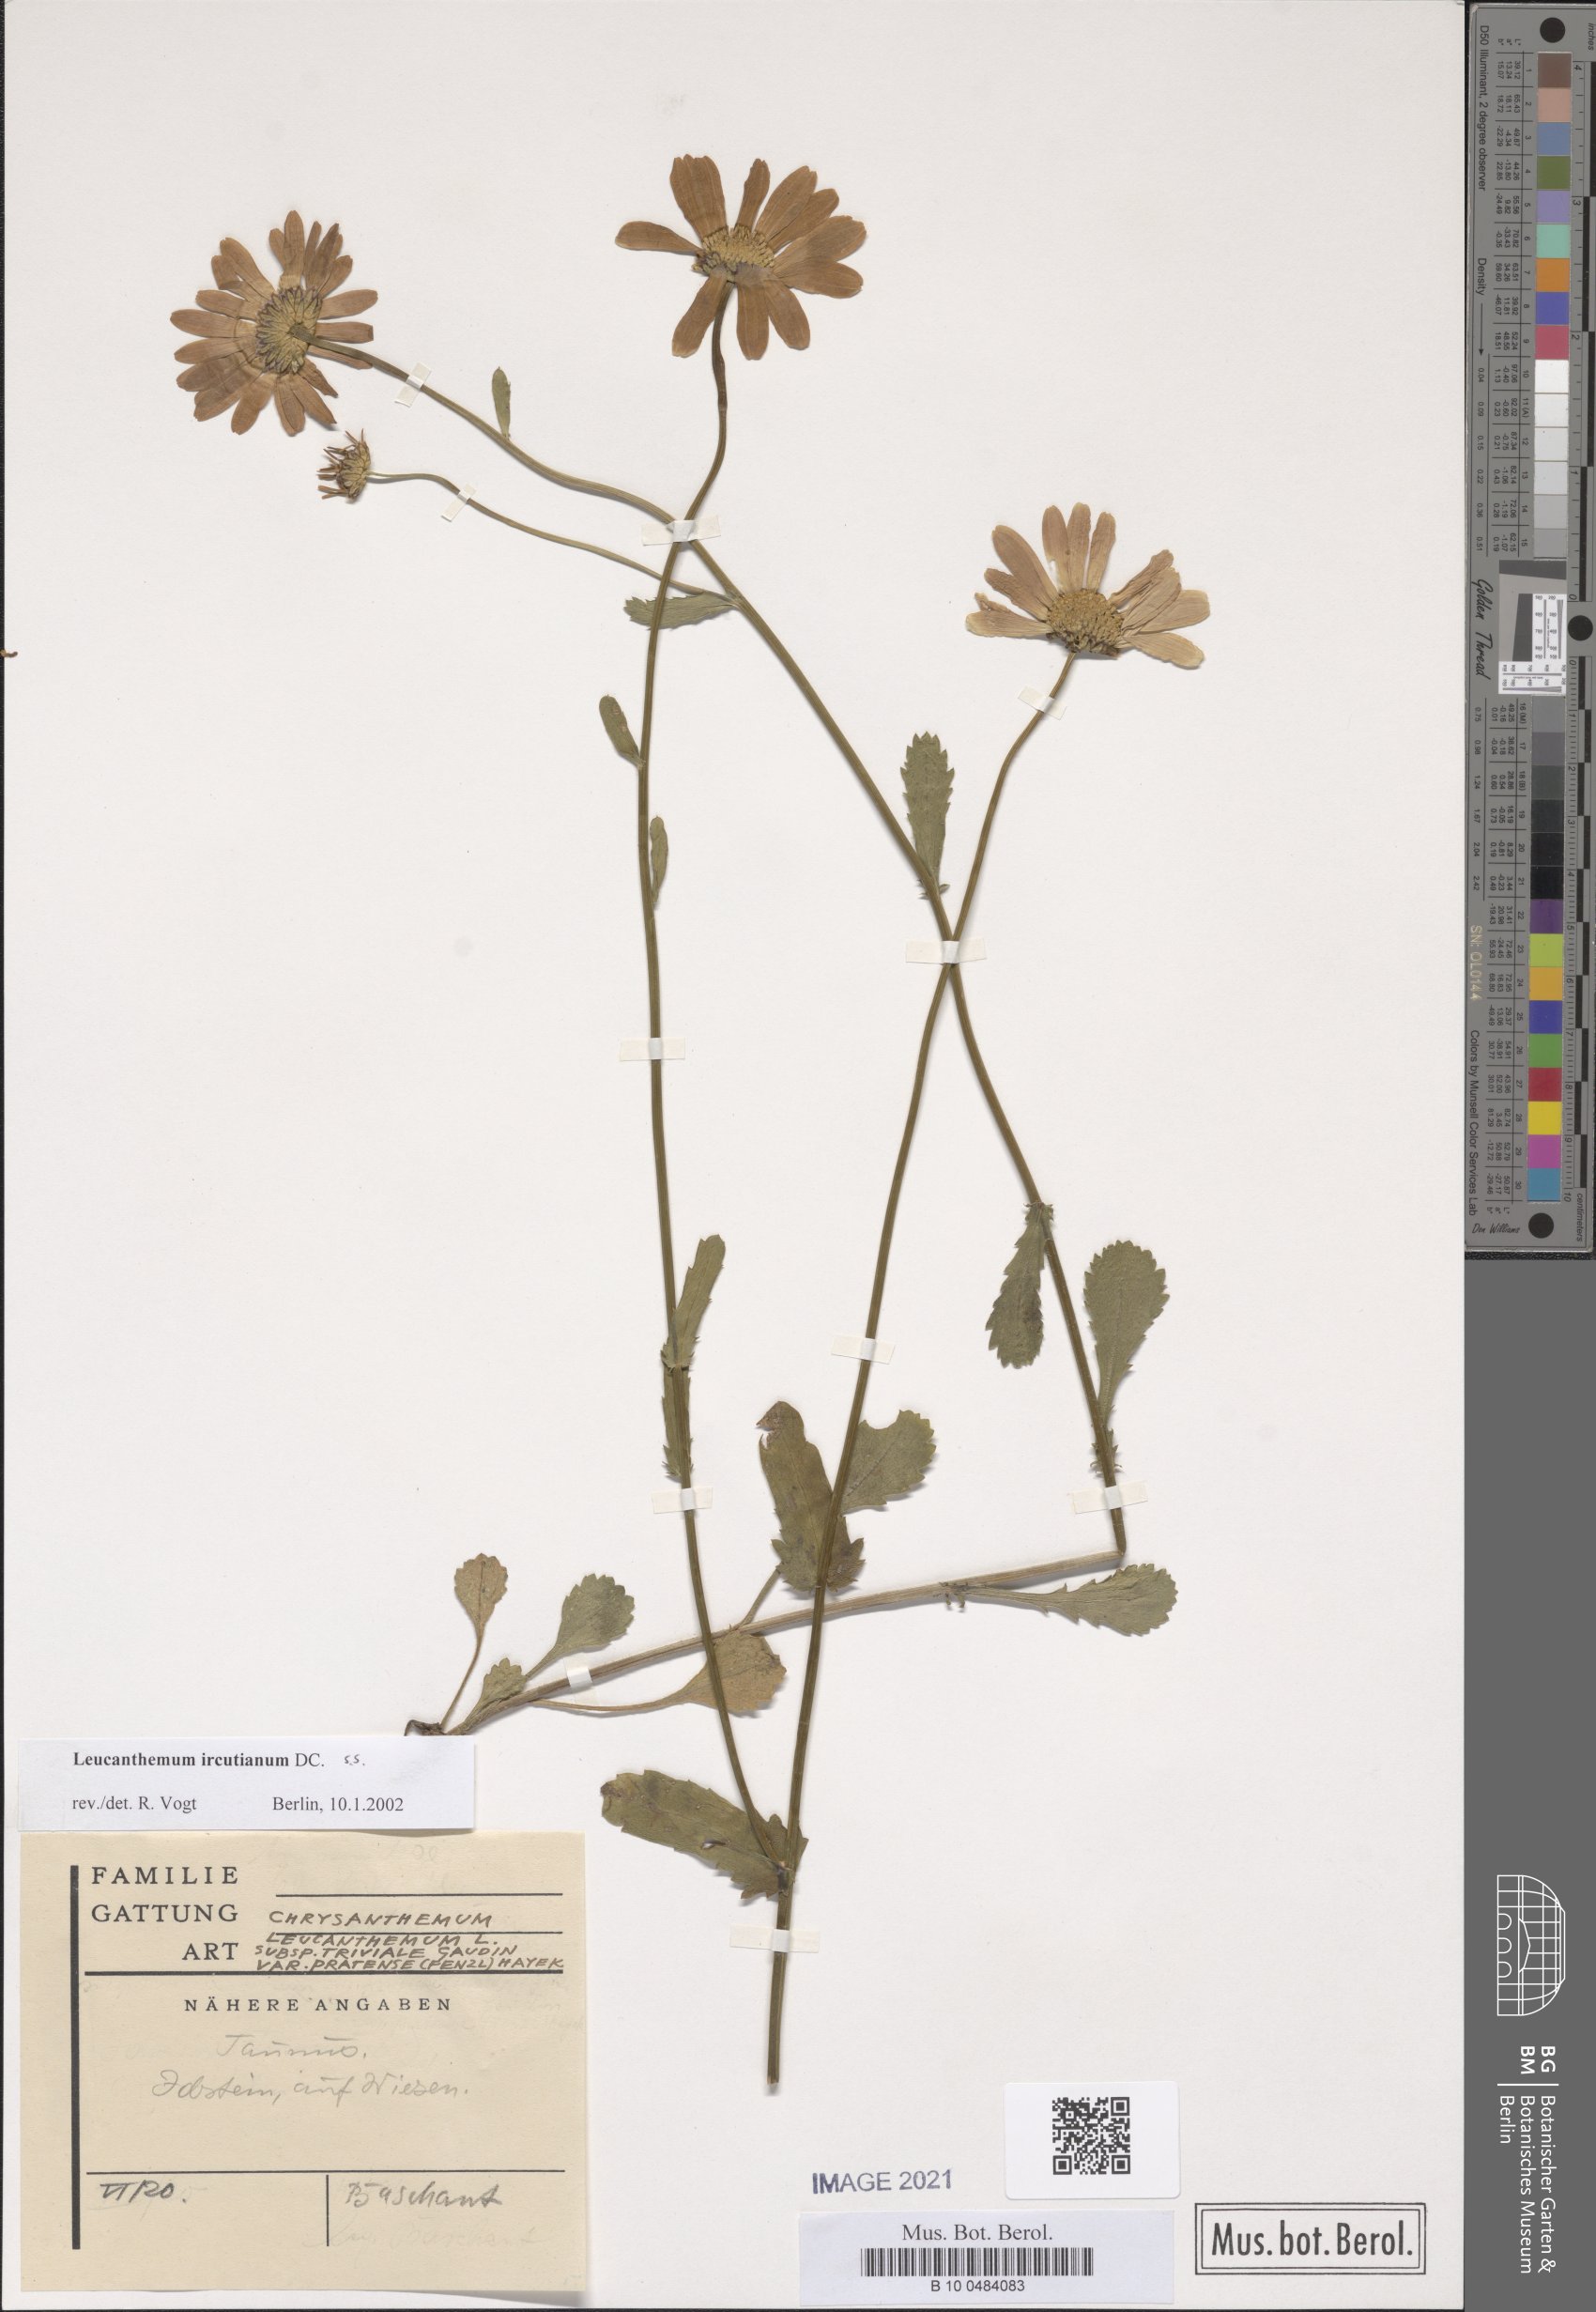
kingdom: Plantae
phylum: Tracheophyta
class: Magnoliopsida
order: Asterales
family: Asteraceae
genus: Leucanthemum
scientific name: Leucanthemum ircutianum
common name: Daisy
